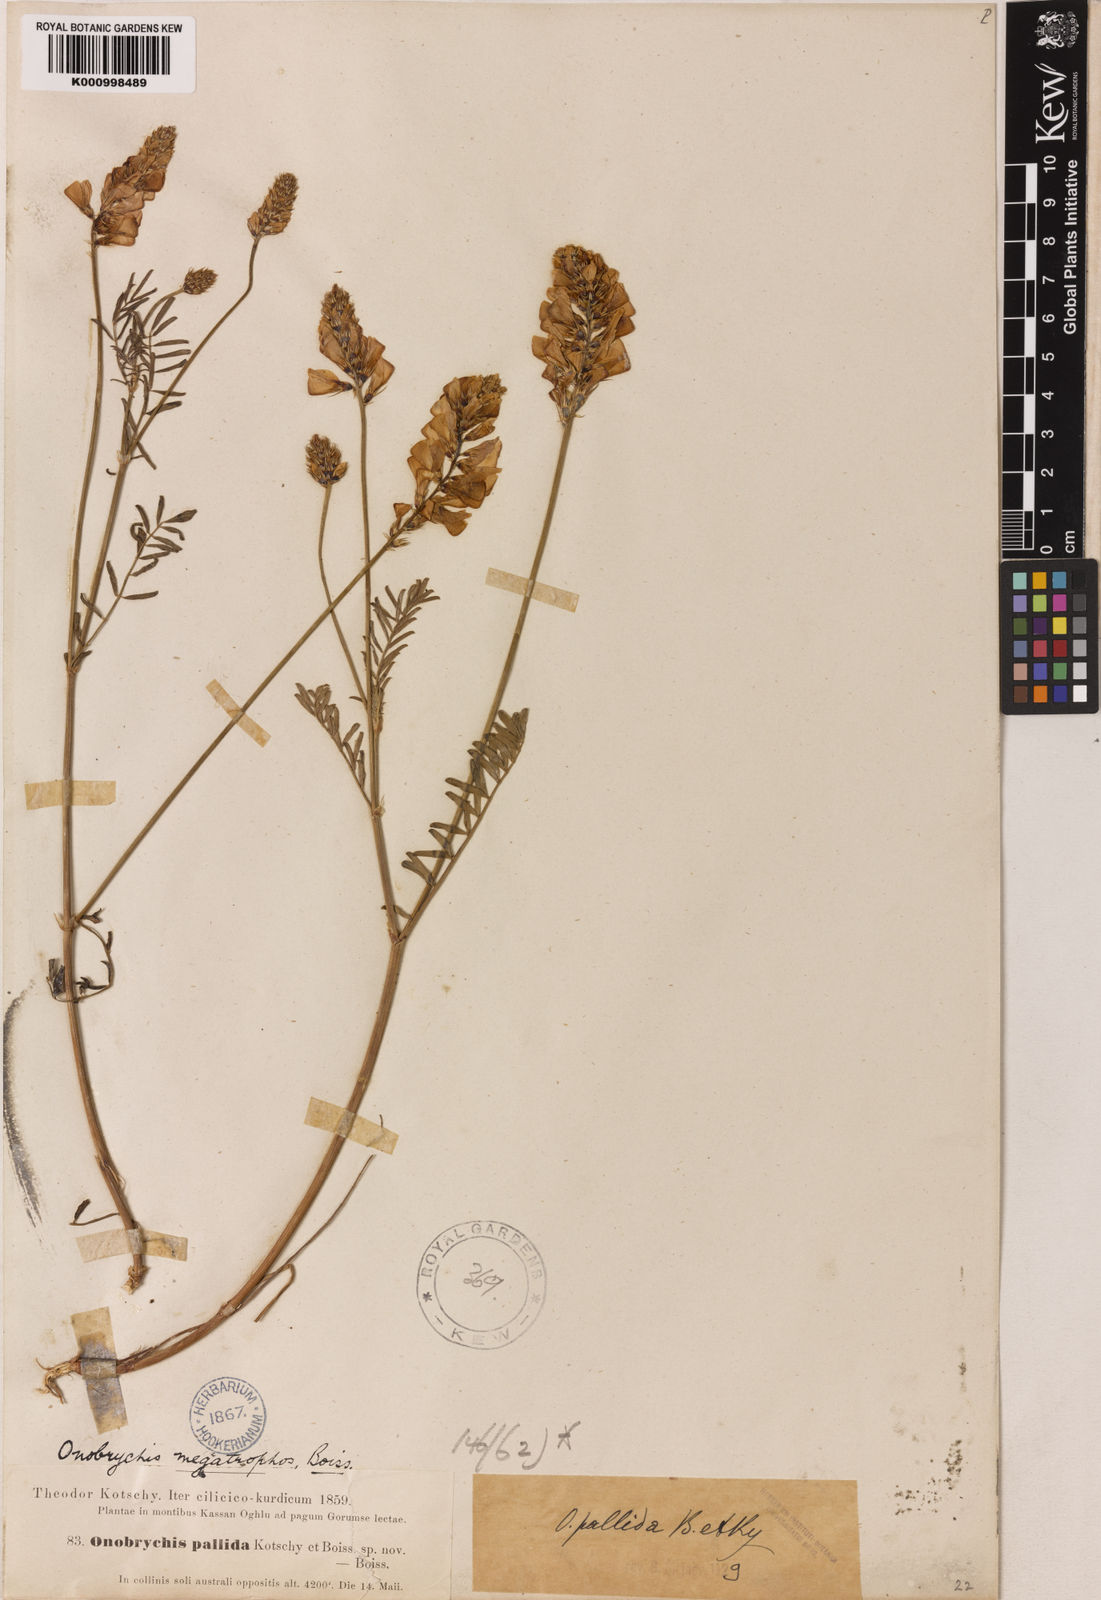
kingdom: Plantae
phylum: Tracheophyta
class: Magnoliopsida
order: Fabales
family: Fabaceae
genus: Onobrychis
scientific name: Onobrychis sulphurea
